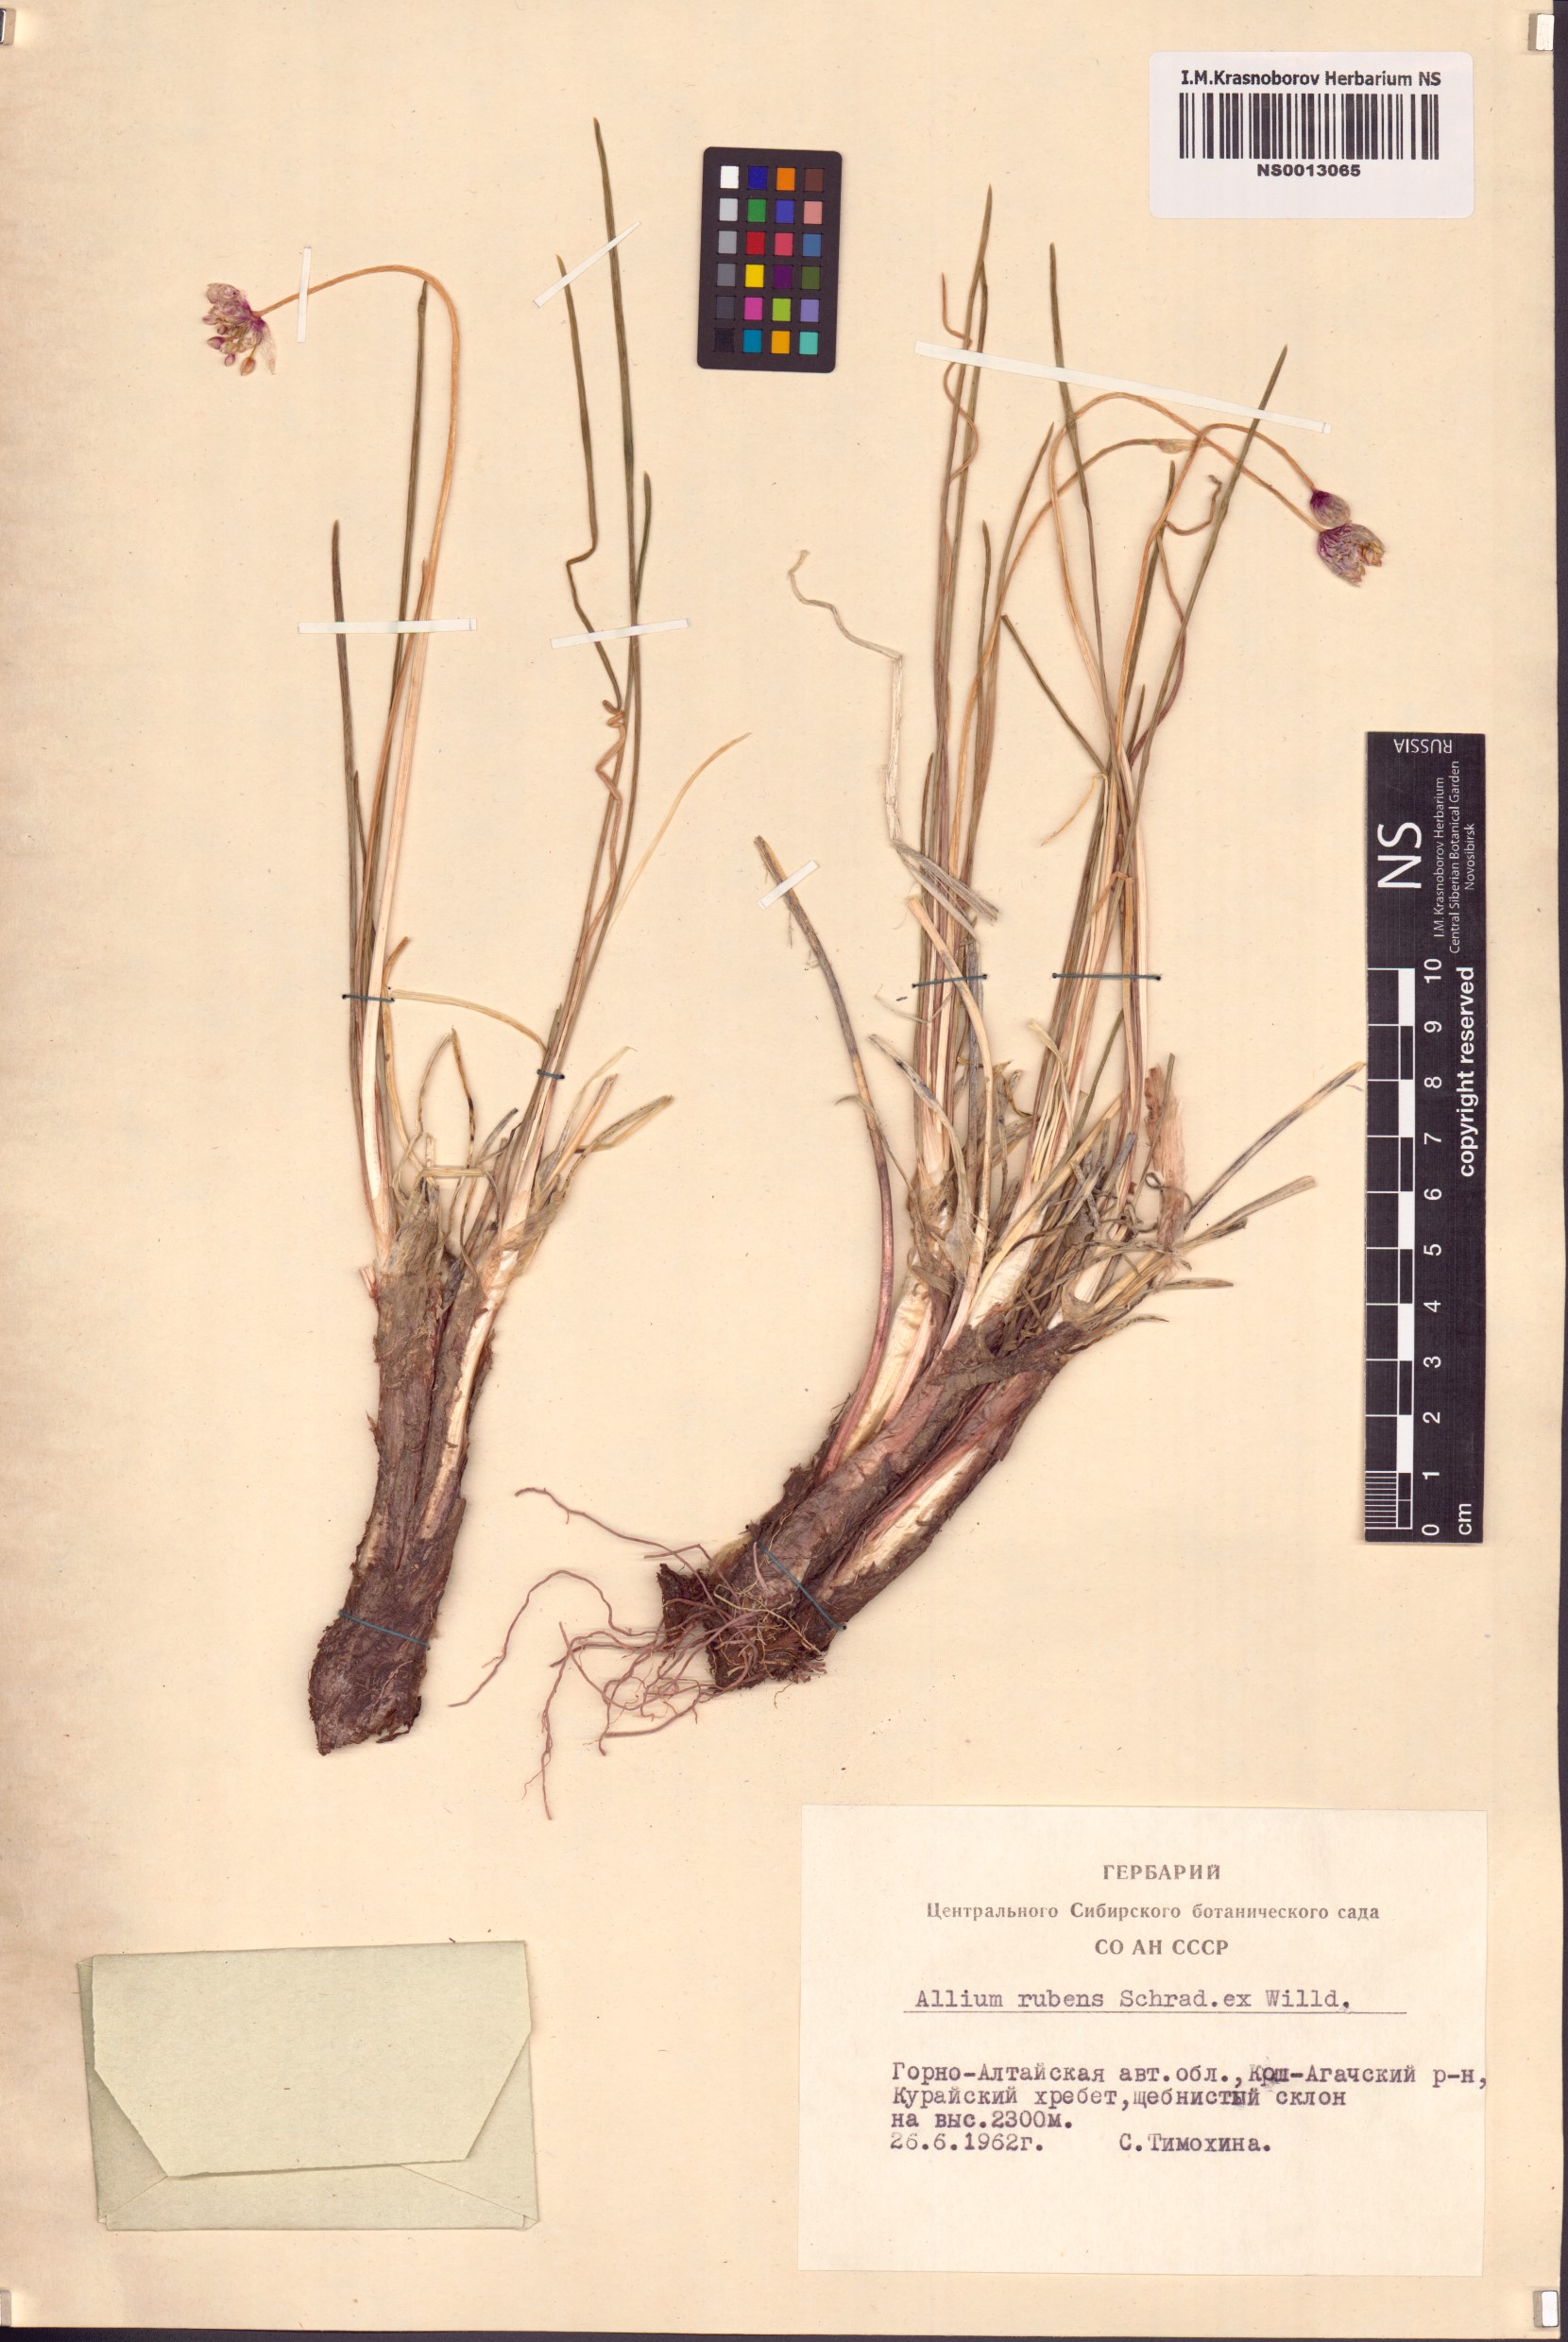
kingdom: Plantae
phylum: Tracheophyta
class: Liliopsida
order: Asparagales
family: Amaryllidaceae
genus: Allium
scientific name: Allium rubens
